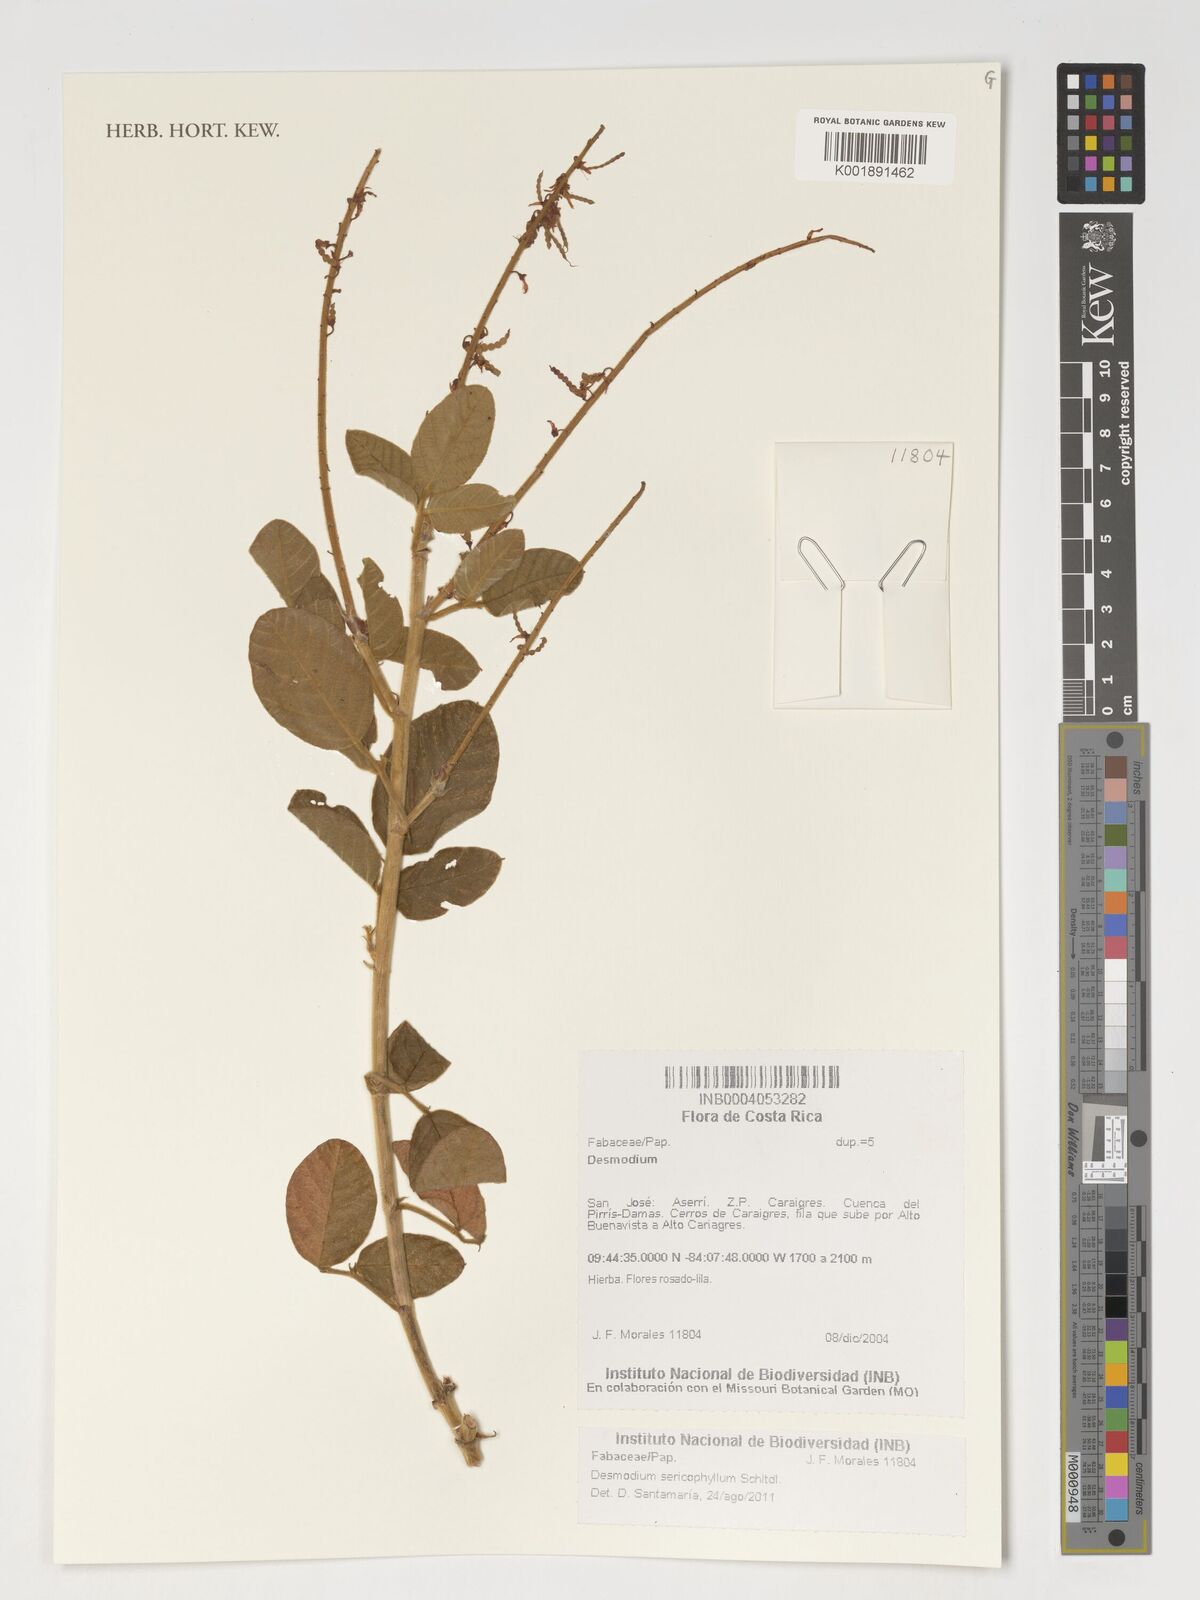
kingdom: Plantae
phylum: Tracheophyta
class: Magnoliopsida
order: Fabales
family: Fabaceae
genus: Desmodium
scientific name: Desmodium sericophyllum
